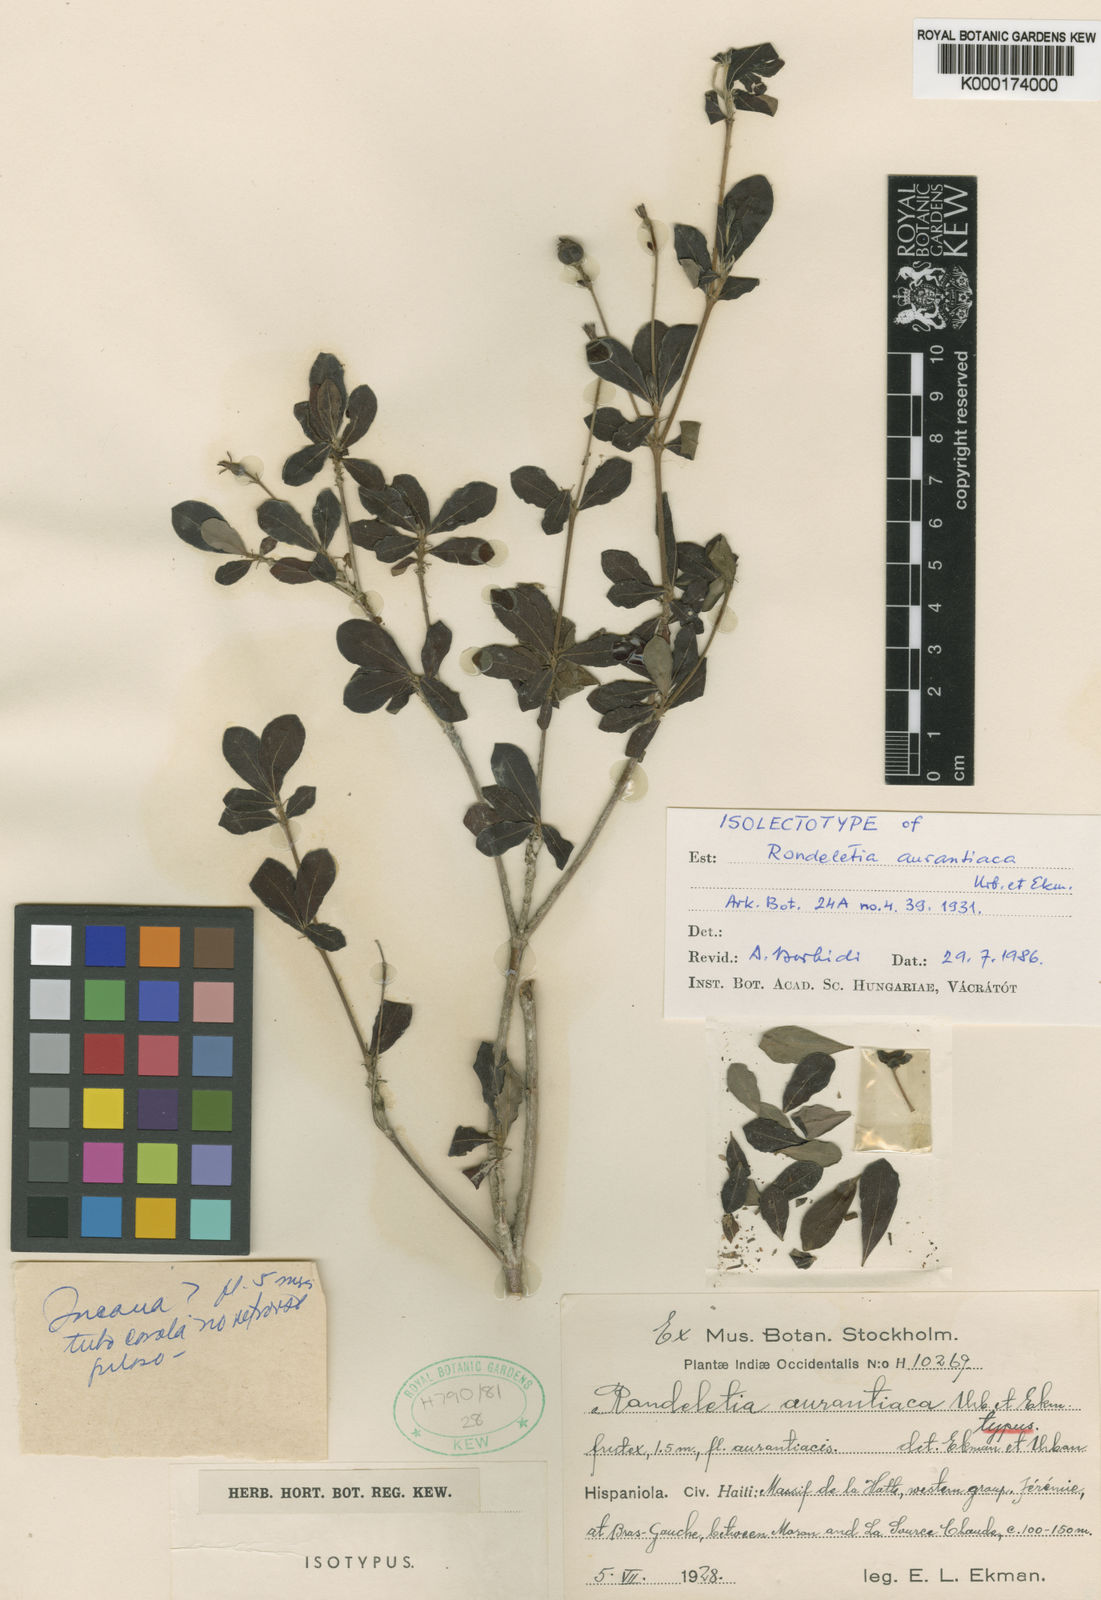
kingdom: Plantae
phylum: Tracheophyta
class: Magnoliopsida
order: Gentianales
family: Rubiaceae
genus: Rondeletia
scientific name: Rondeletia aurantiaca
